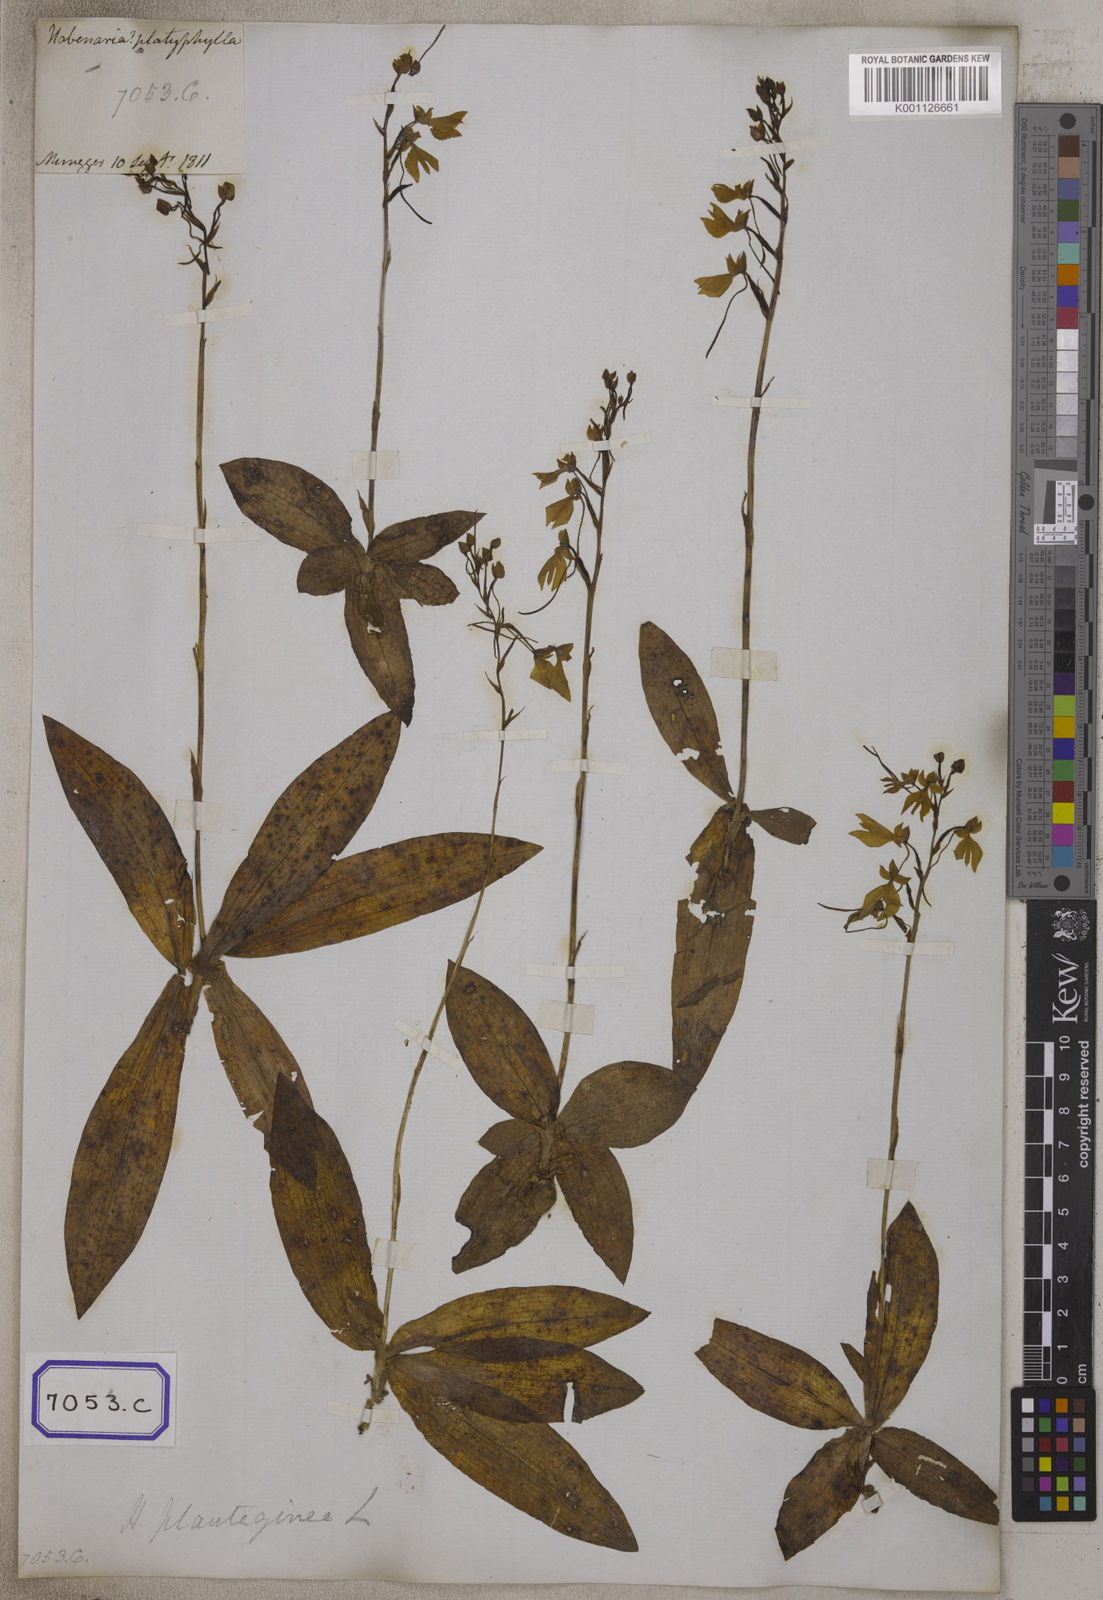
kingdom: Plantae
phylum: Tracheophyta
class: Liliopsida
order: Asparagales
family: Orchidaceae
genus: Gymnadenia
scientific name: Gymnadenia
